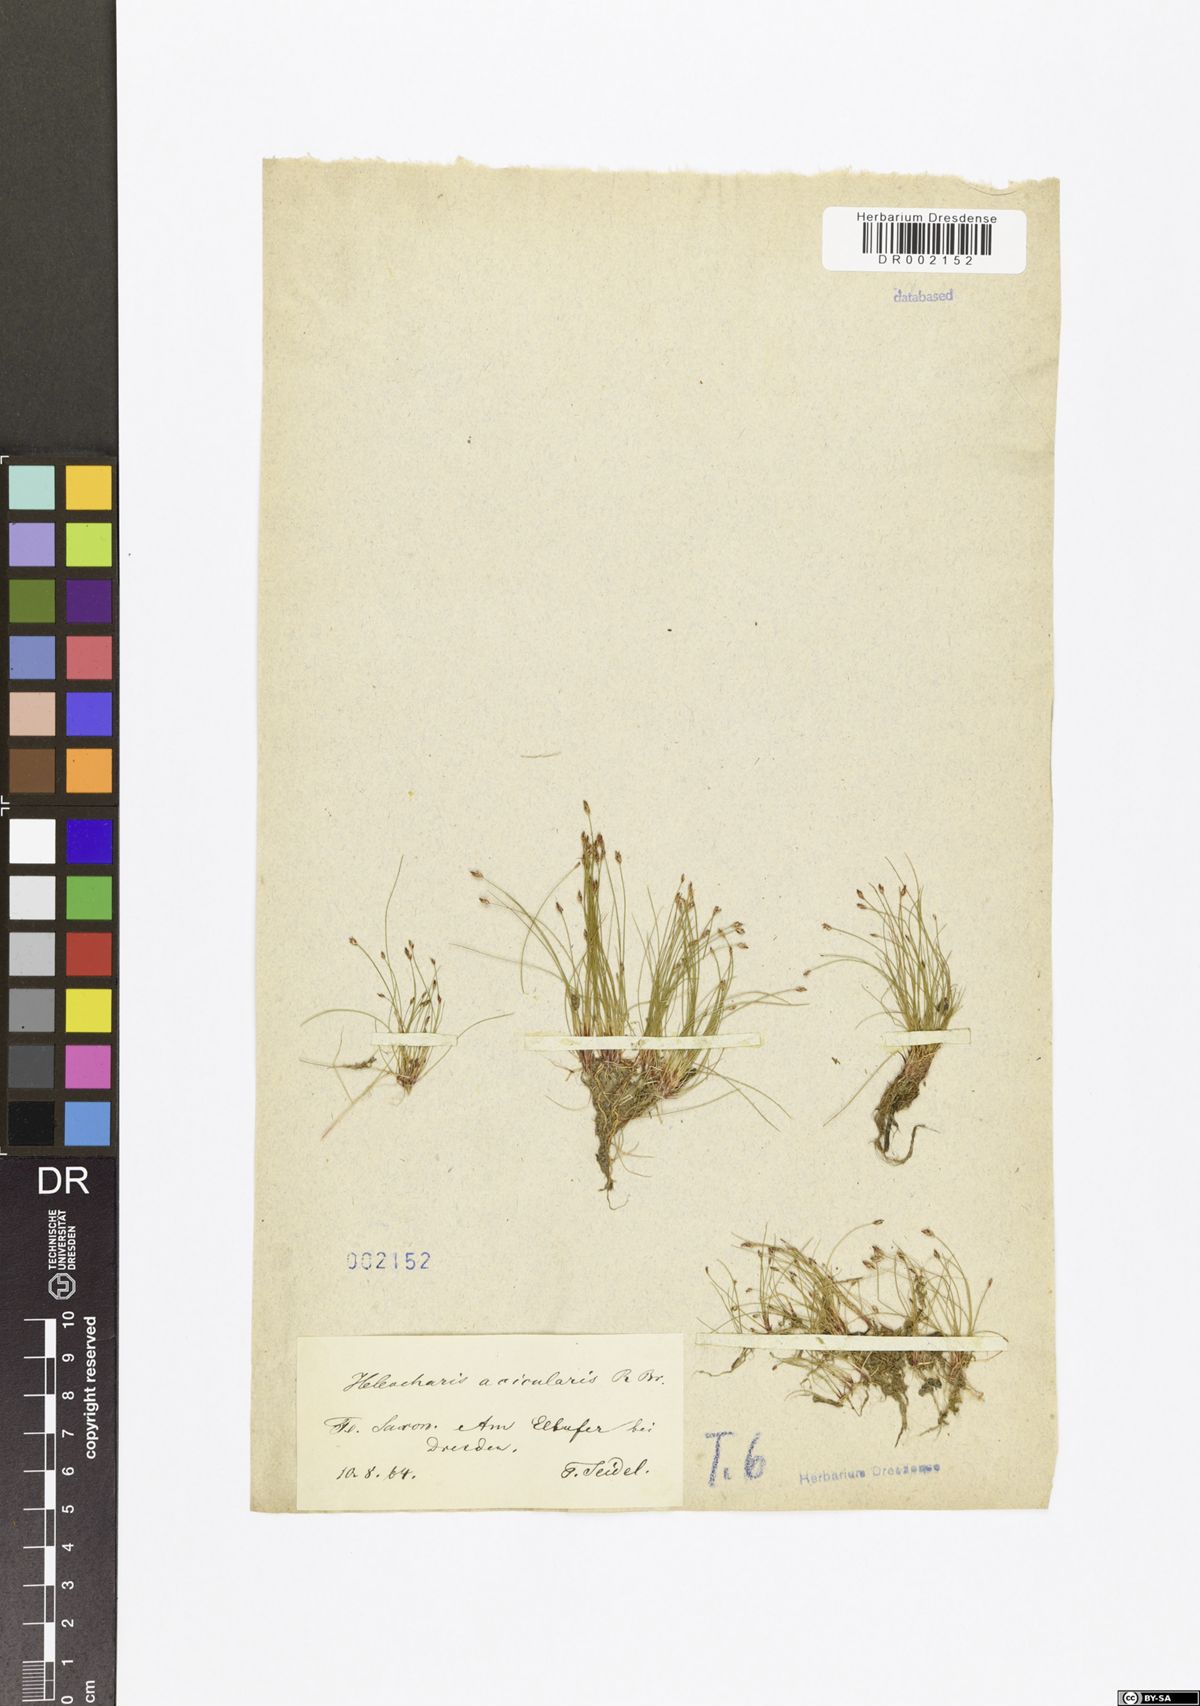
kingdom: Plantae
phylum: Tracheophyta
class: Liliopsida
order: Poales
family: Cyperaceae
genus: Eleocharis
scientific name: Eleocharis acicularis
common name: Needle spike-rush
